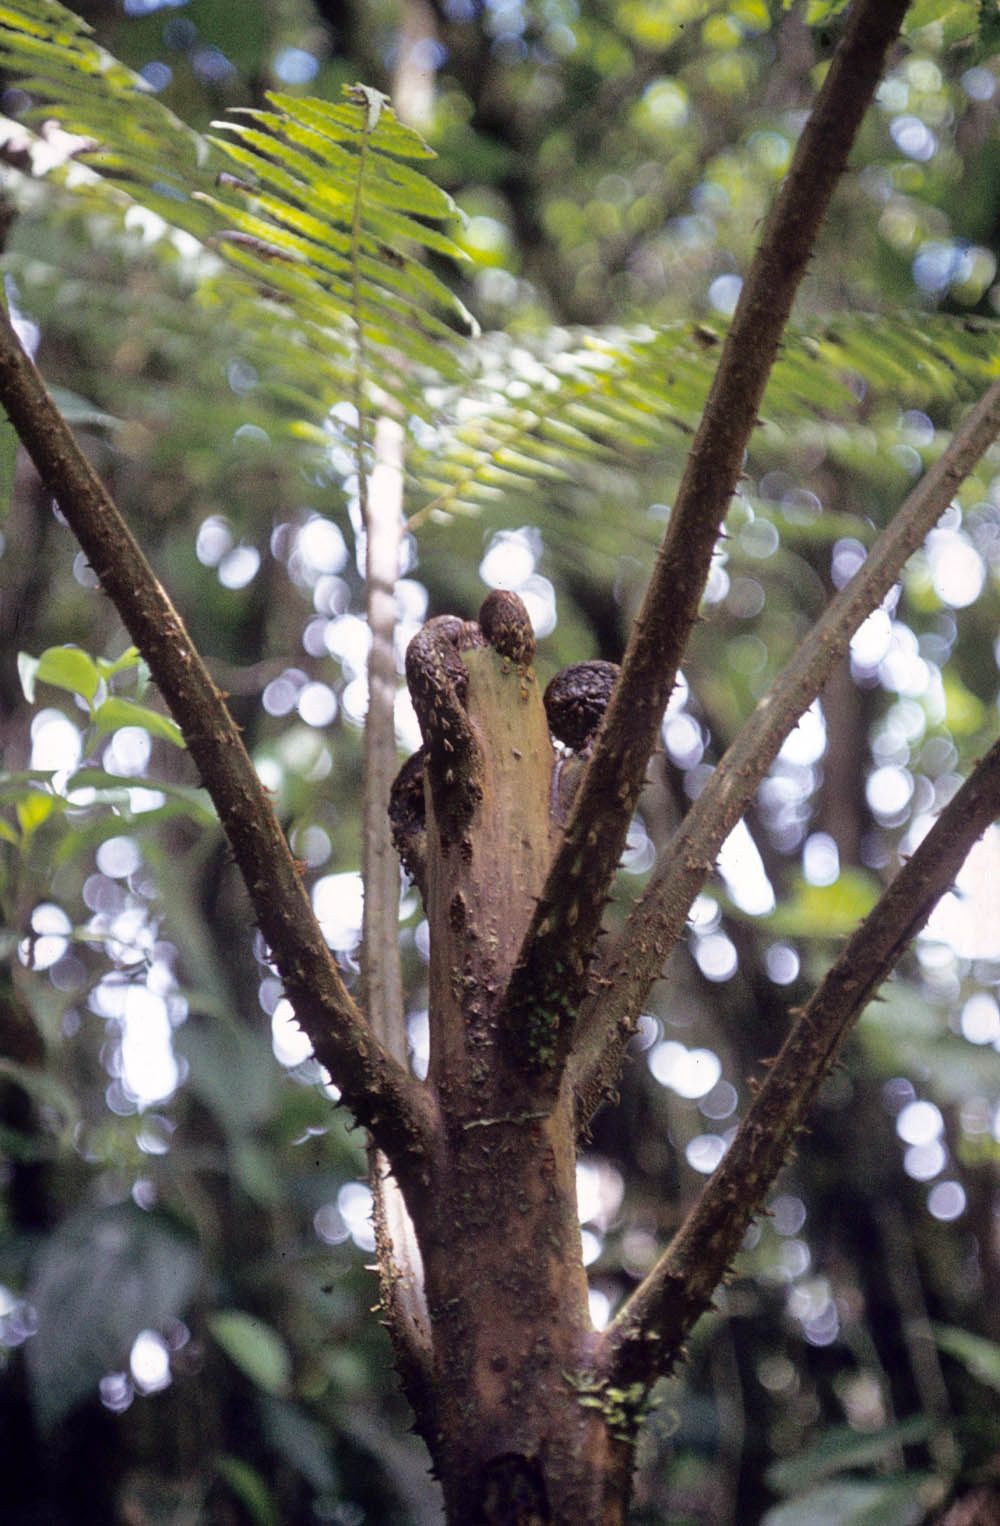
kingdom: Plantae
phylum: Tracheophyta
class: Polypodiopsida
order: Cyatheales
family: Cyatheaceae
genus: Cyathea
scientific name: Cyathea planadae
